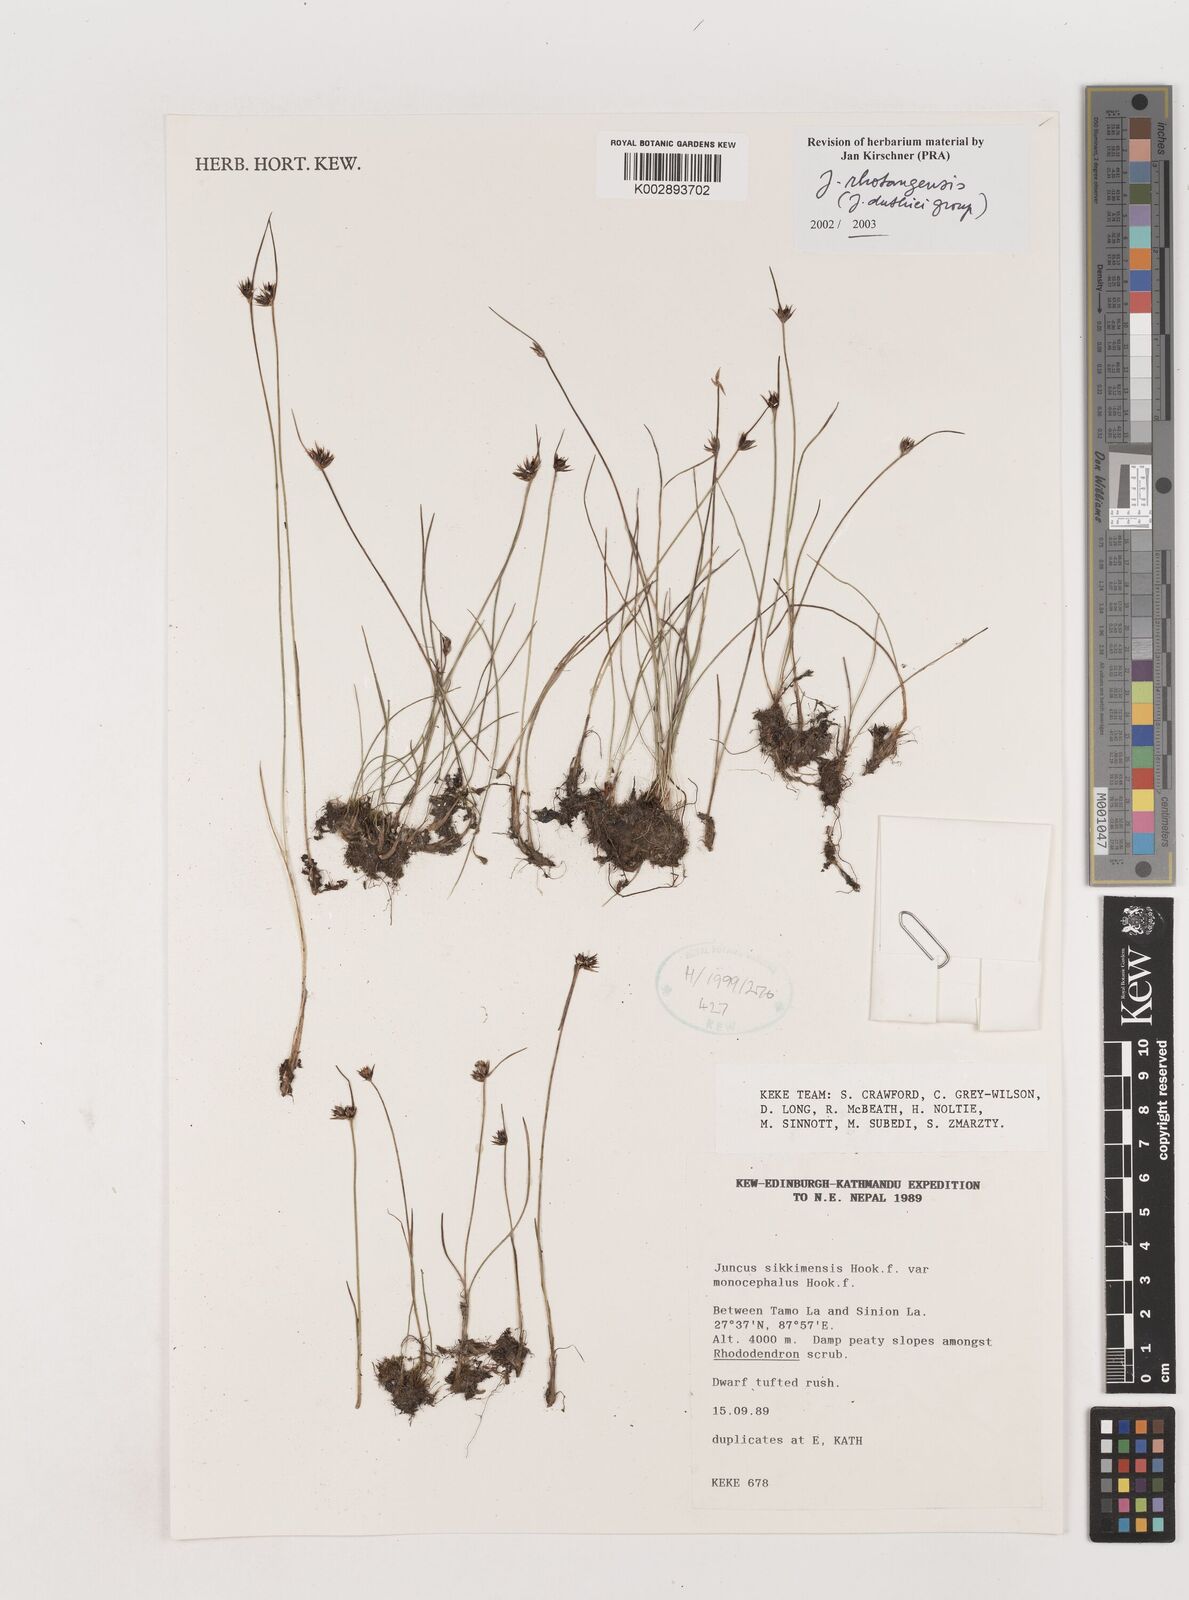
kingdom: Plantae
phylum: Tracheophyta
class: Liliopsida
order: Poales
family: Juncaceae
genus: Juncus
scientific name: Juncus duthiei
